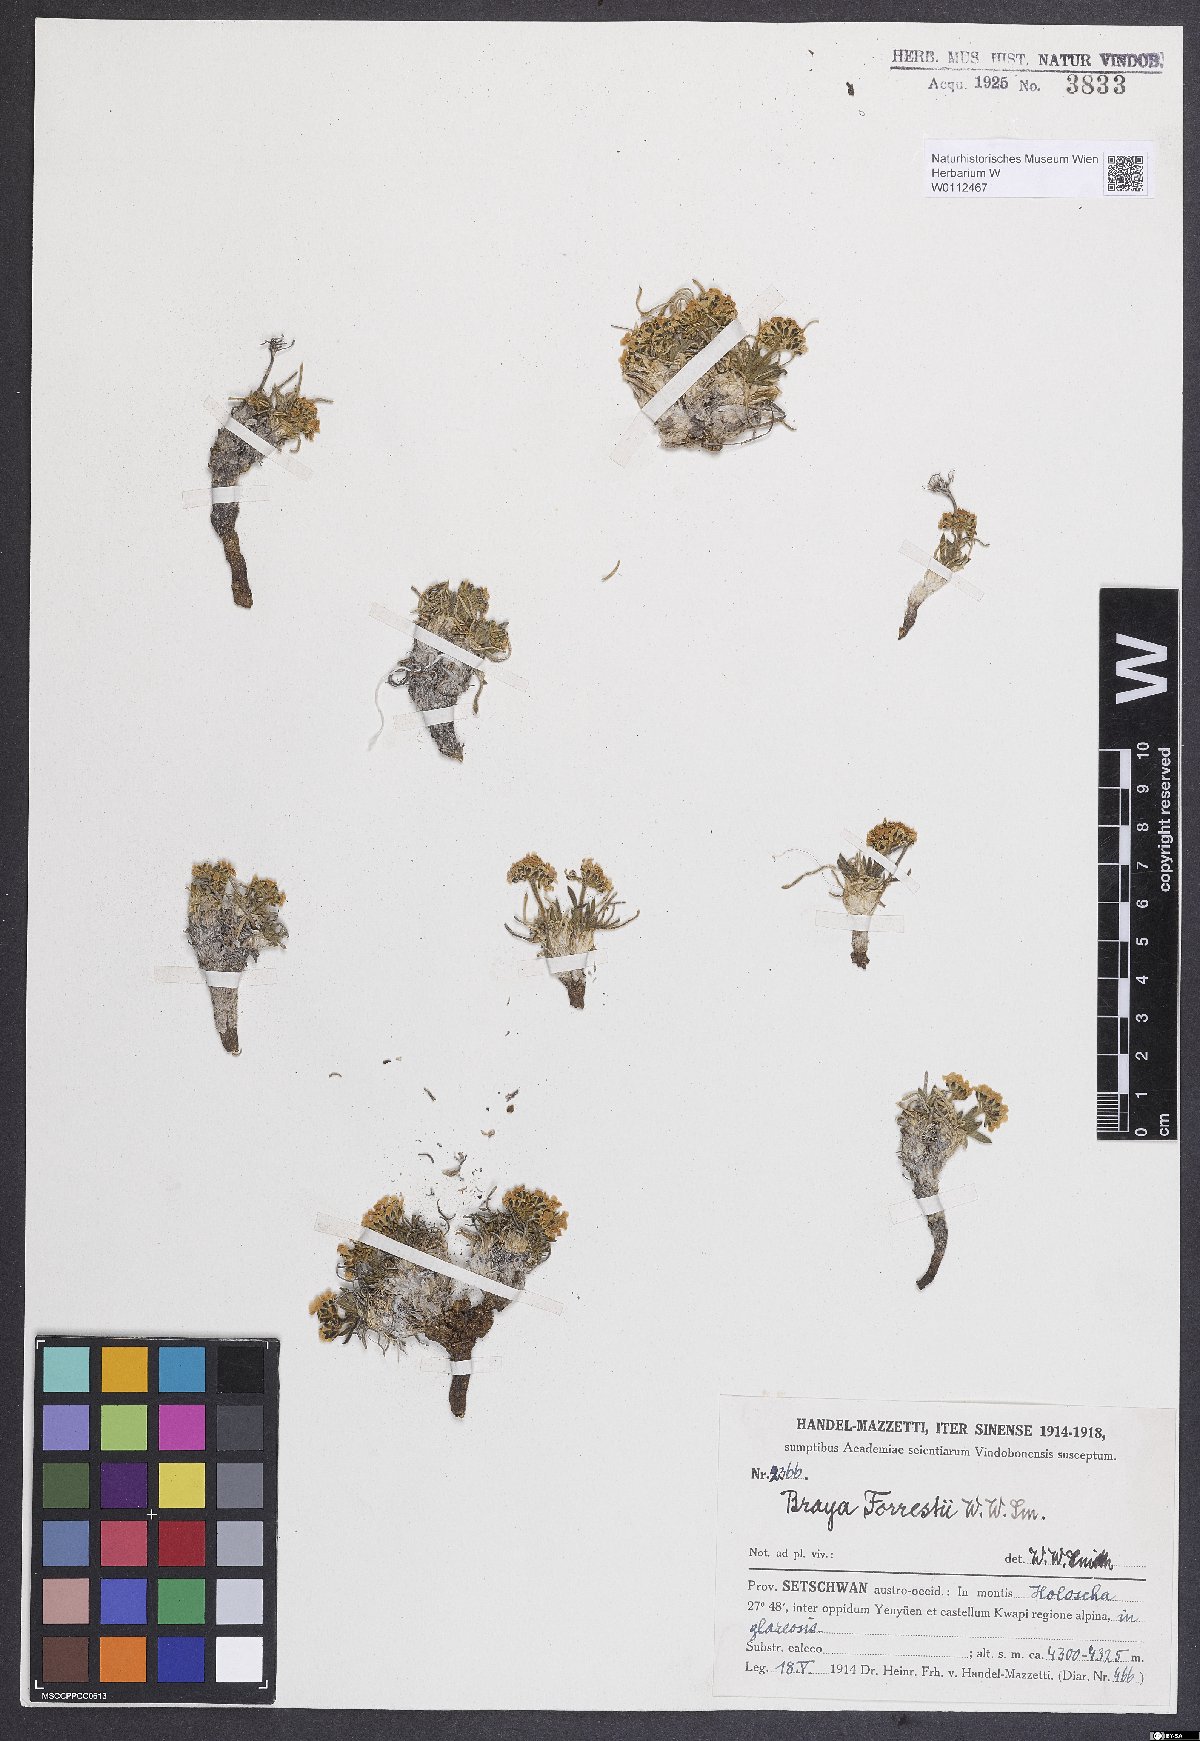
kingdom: Plantae
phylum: Tracheophyta
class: Magnoliopsida
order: Brassicales
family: Brassicaceae
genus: Metashangrilaia
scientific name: Metashangrilaia forrestii
